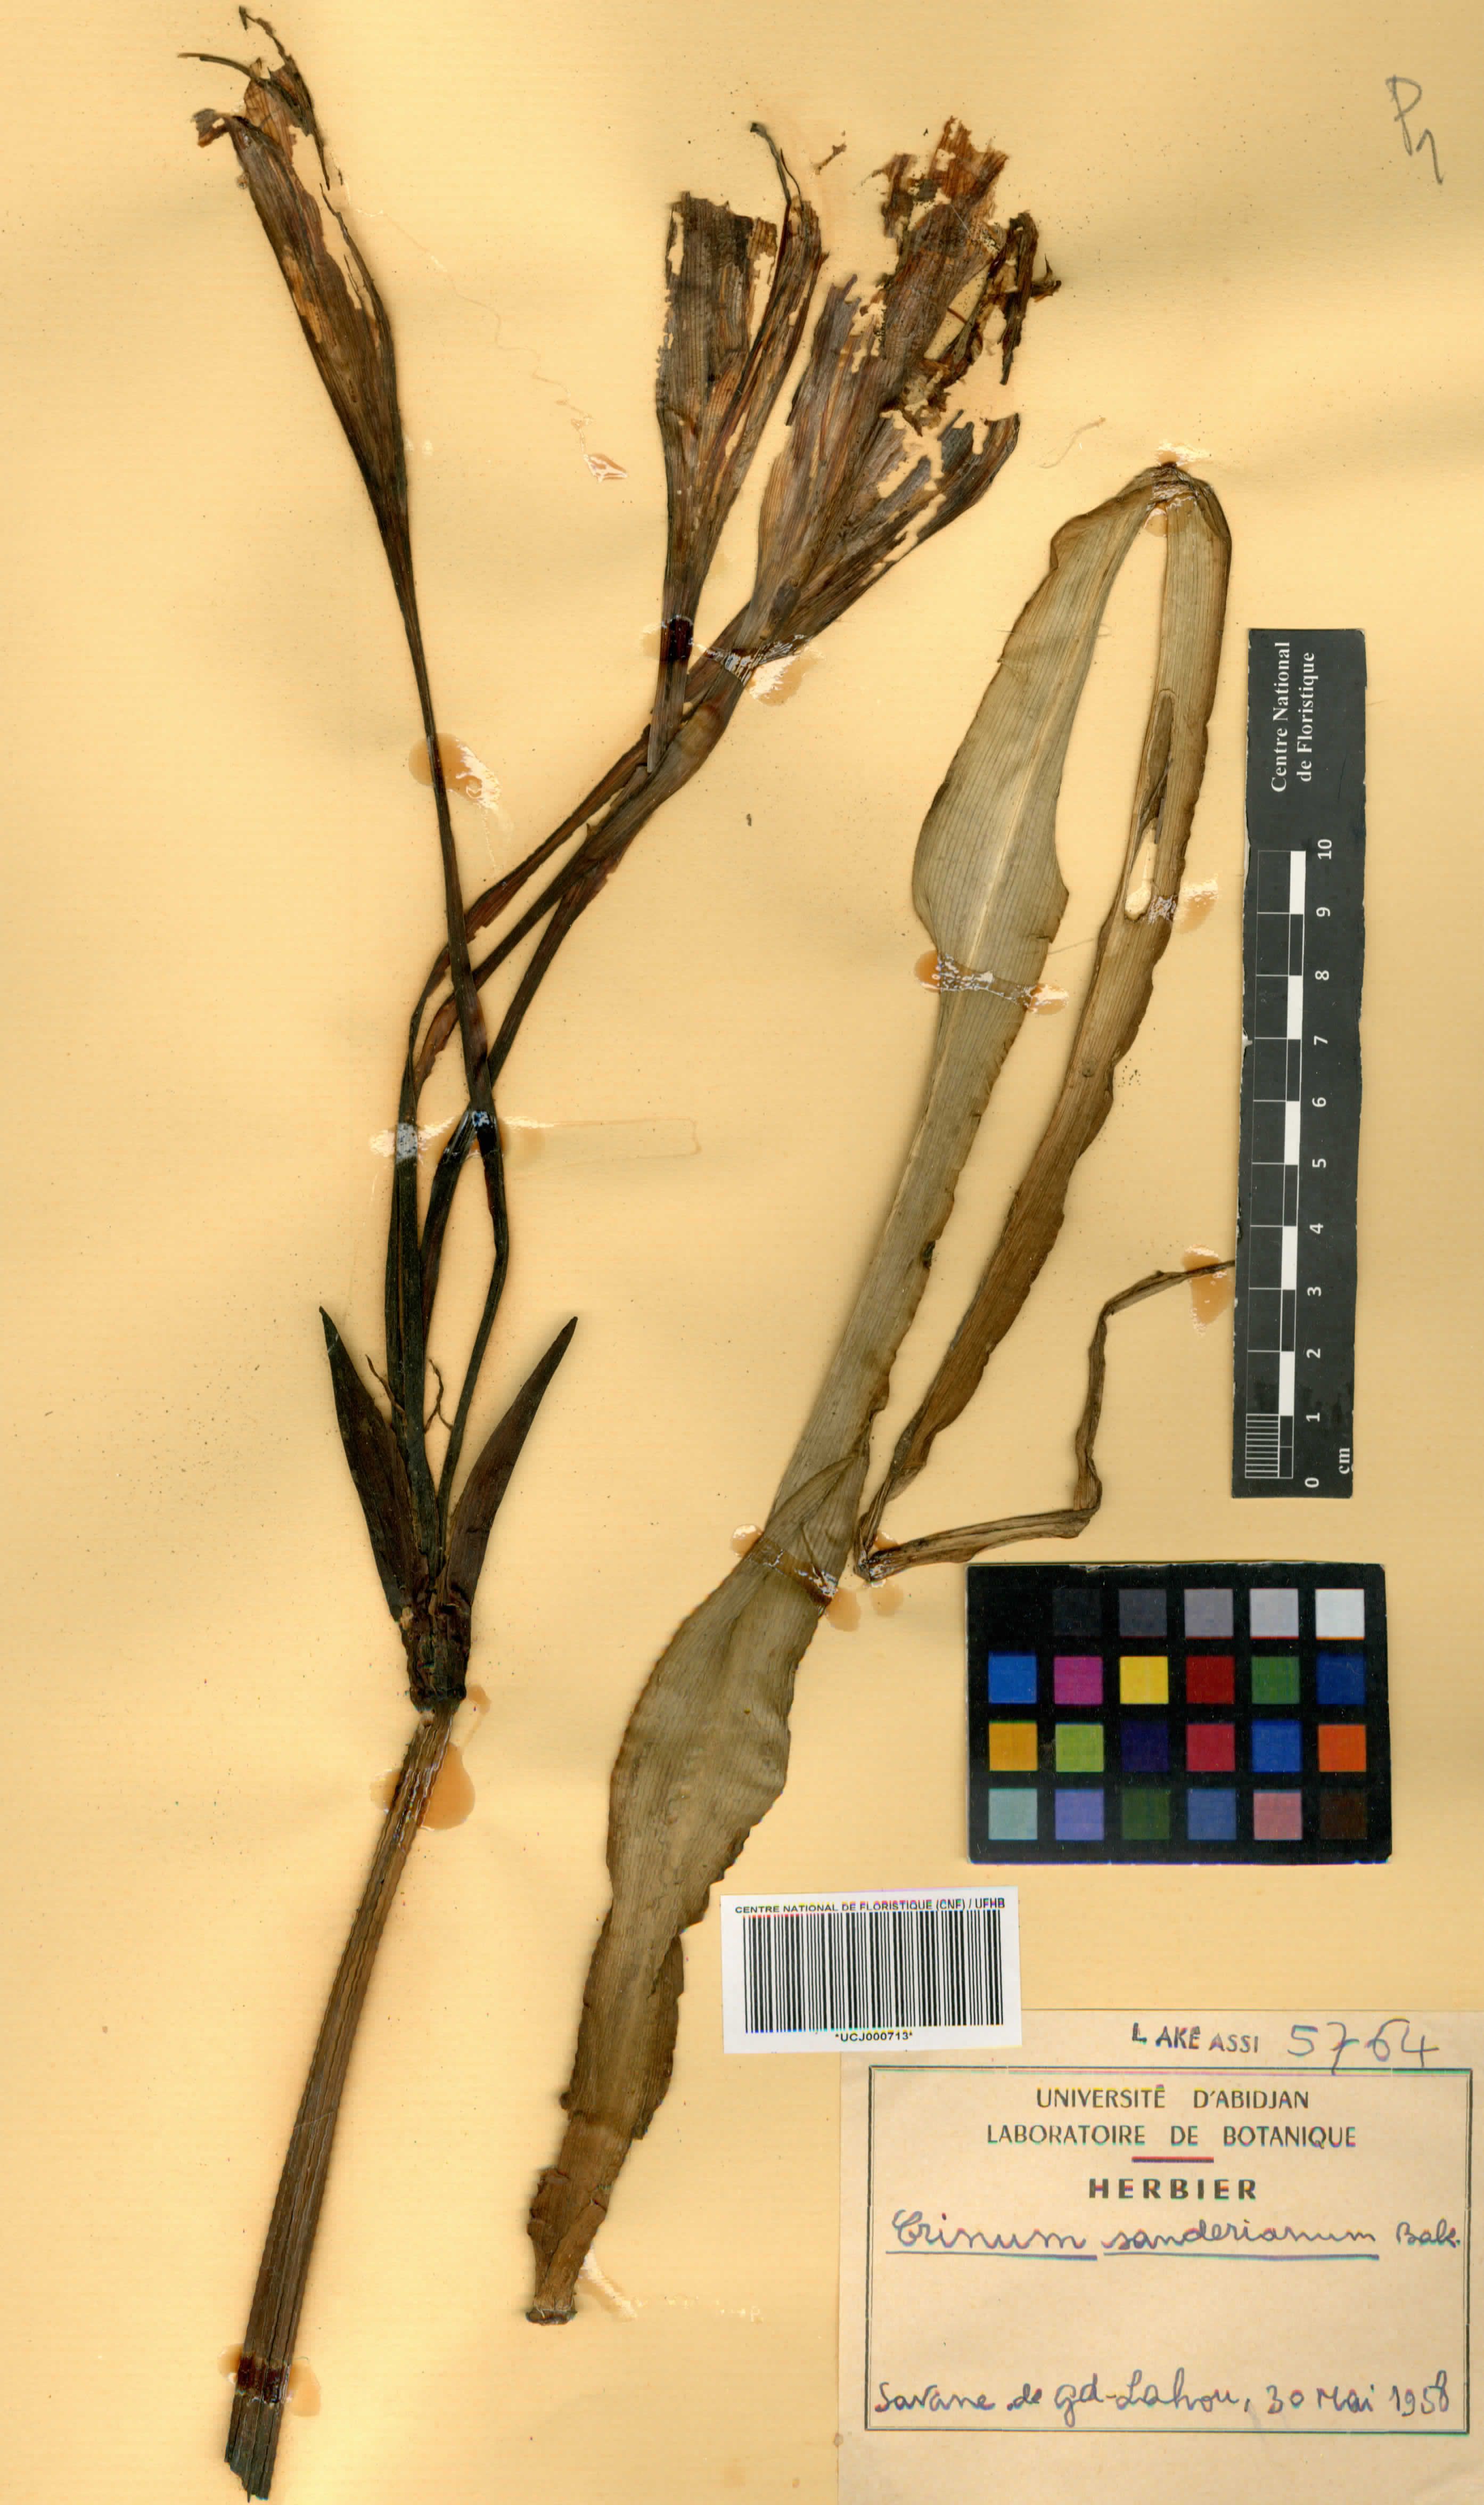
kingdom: Plantae
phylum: Tracheophyta
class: Liliopsida
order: Asparagales
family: Amaryllidaceae
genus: Crinum
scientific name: Crinum ornatum
